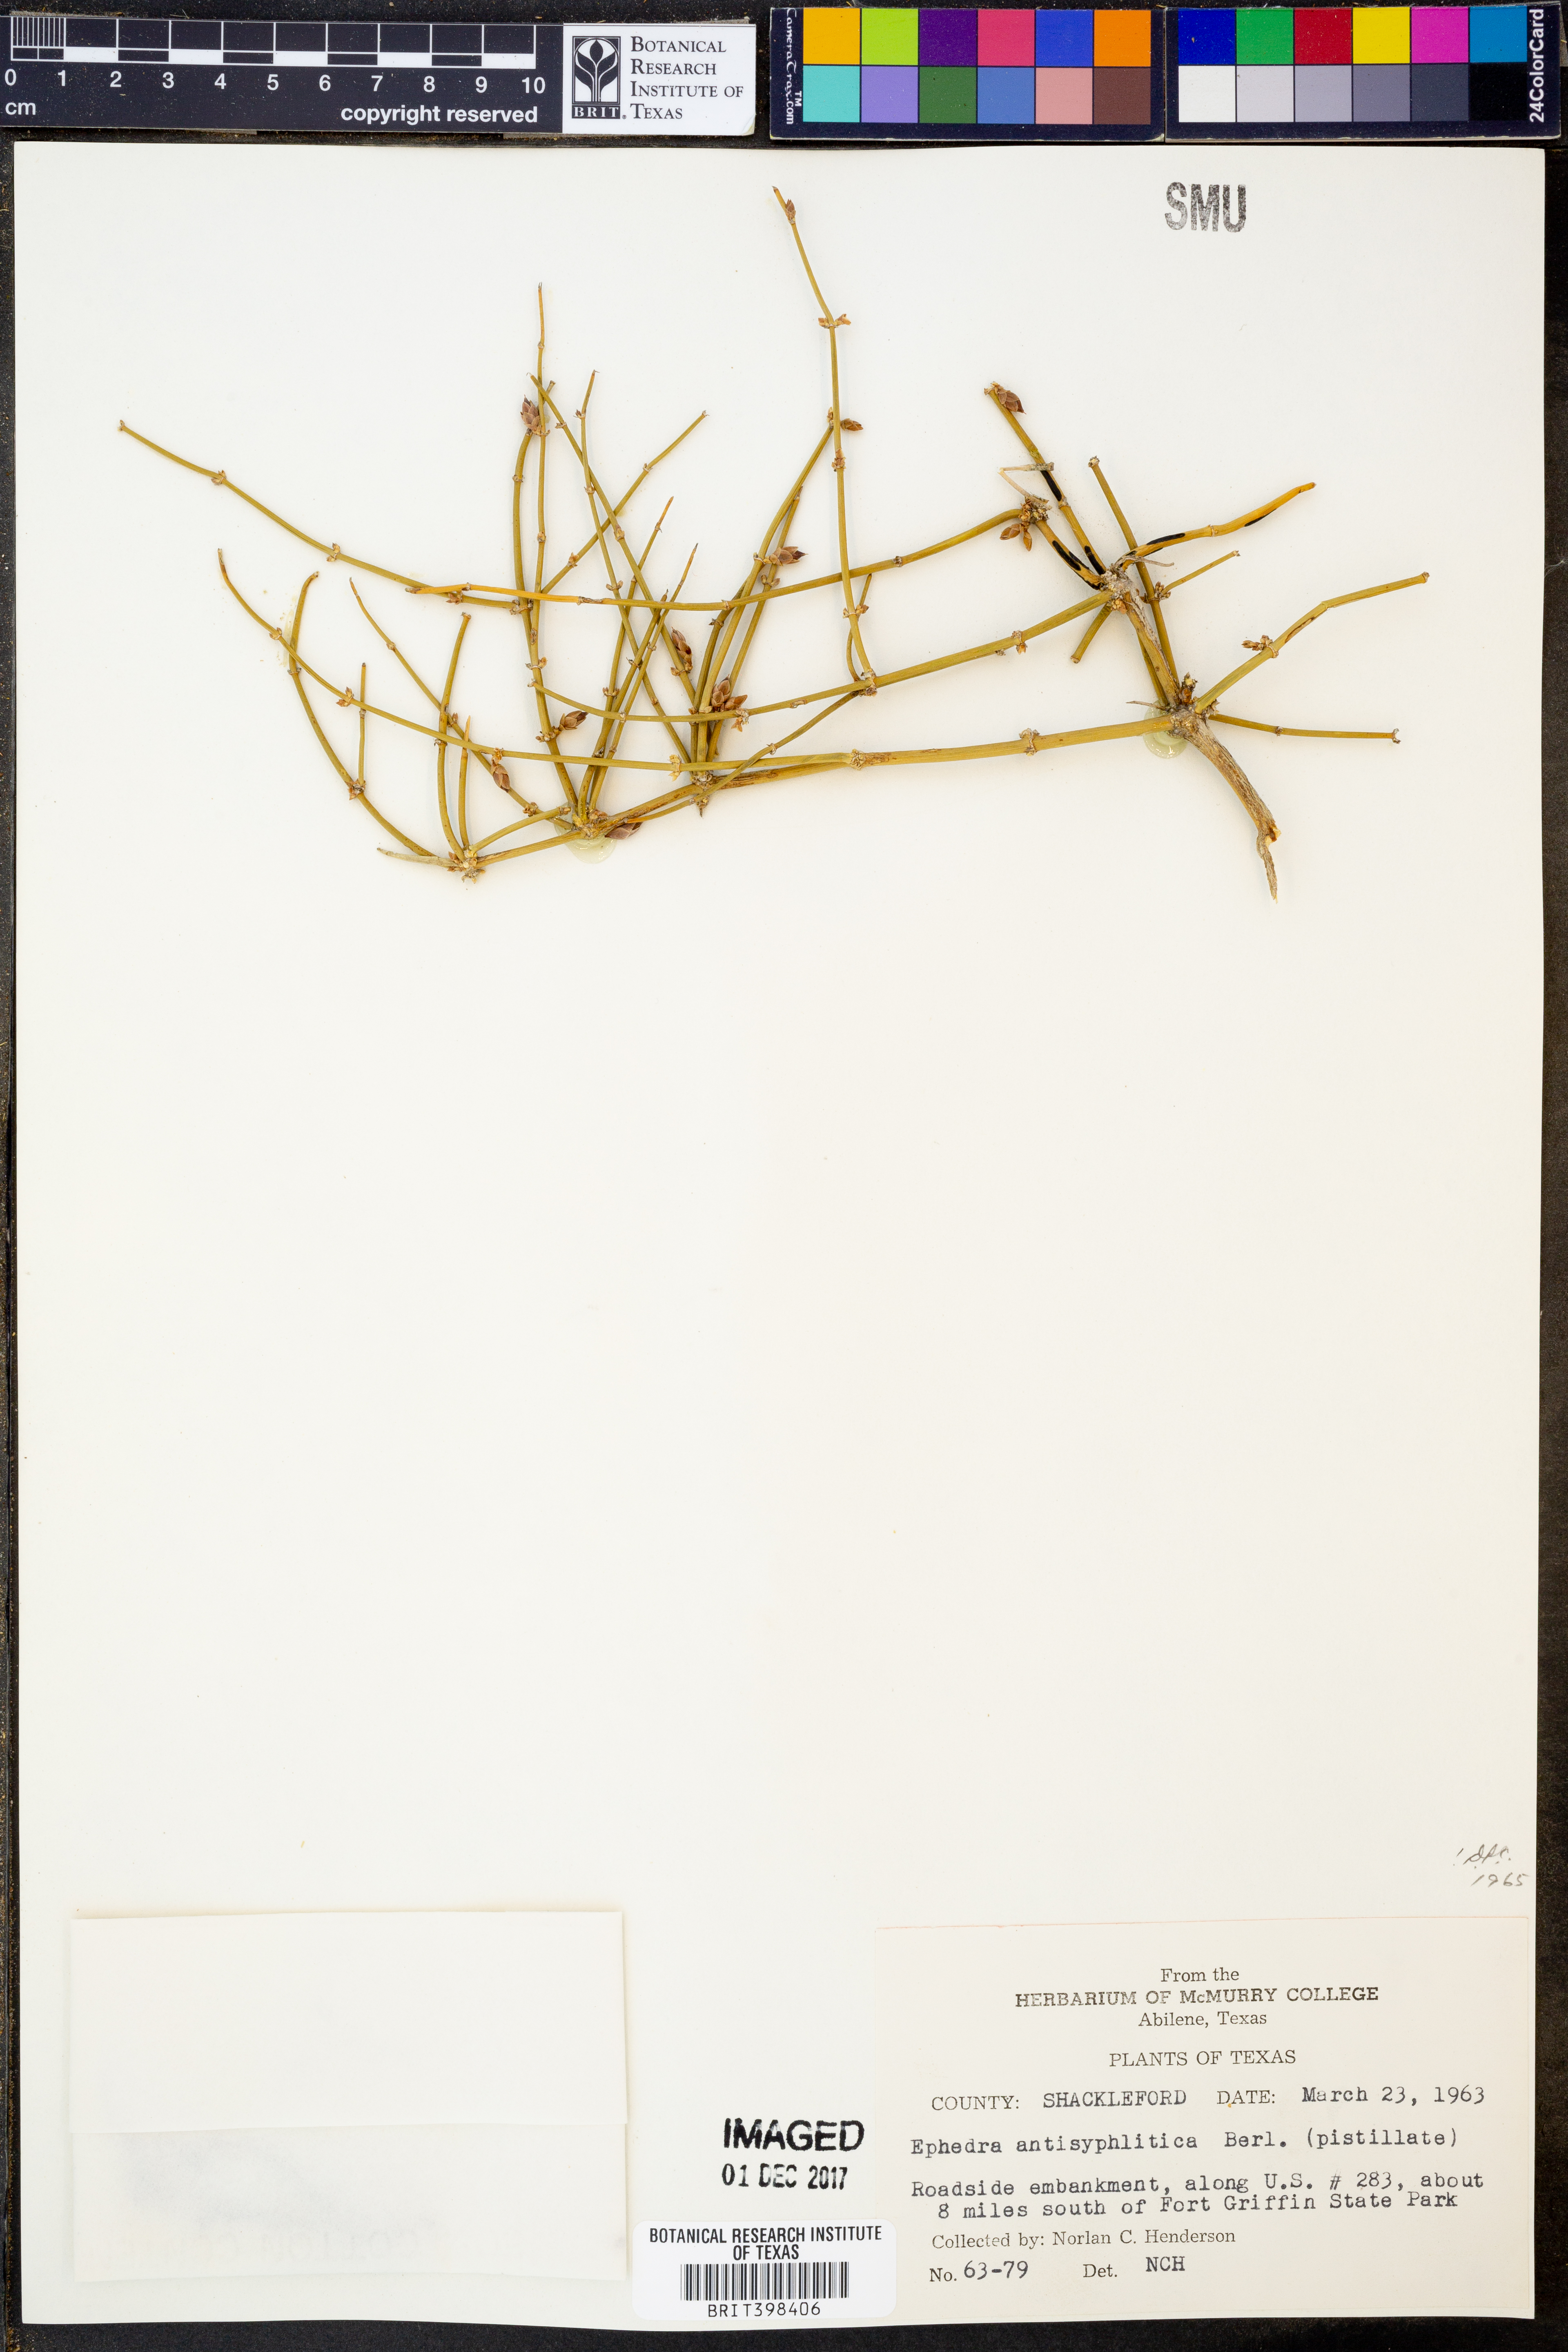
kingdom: Plantae
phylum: Tracheophyta
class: Gnetopsida
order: Ephedrales
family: Ephedraceae
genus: Ephedra
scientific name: Ephedra antisyphilitica
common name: Clipweed
